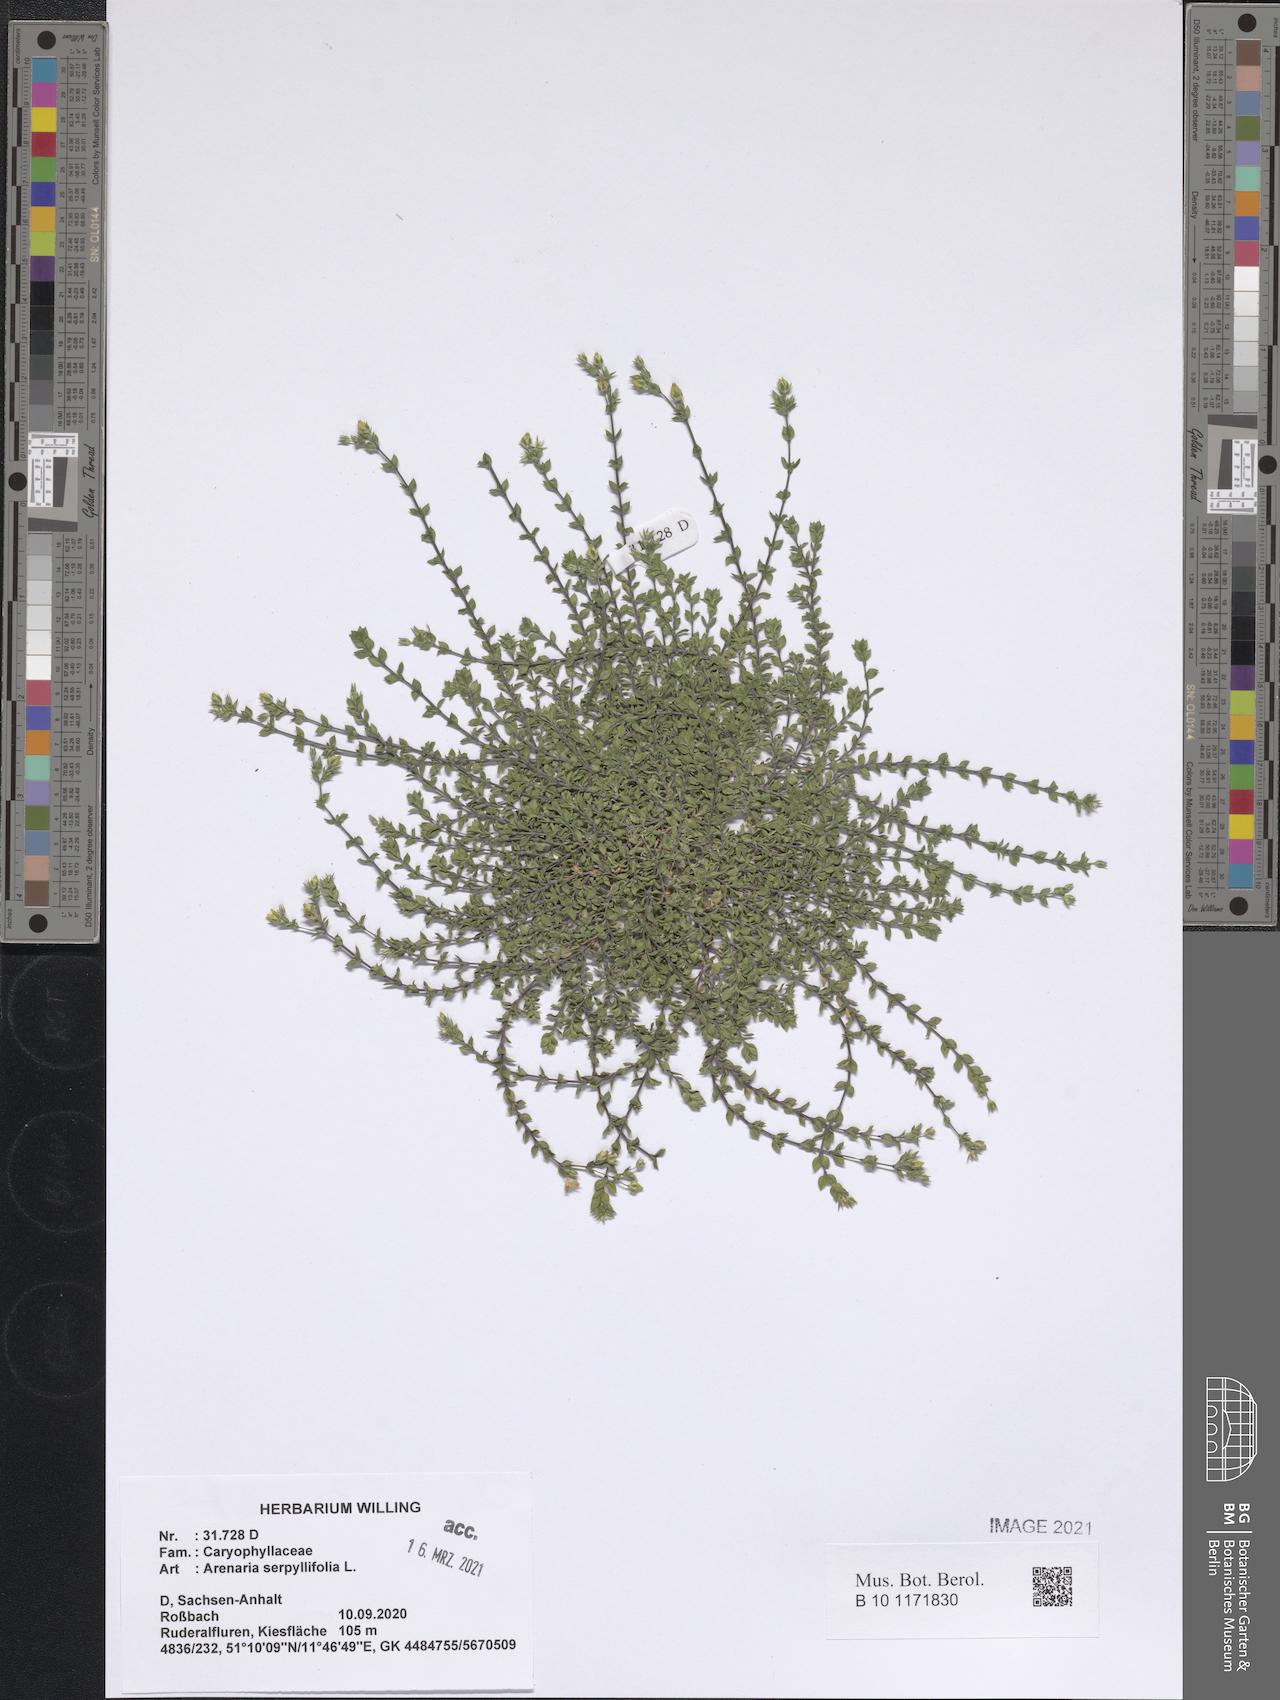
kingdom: Plantae
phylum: Tracheophyta
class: Magnoliopsida
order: Caryophyllales
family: Caryophyllaceae
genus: Arenaria
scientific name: Arenaria serpyllifolia
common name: Thyme-leaved sandwort
